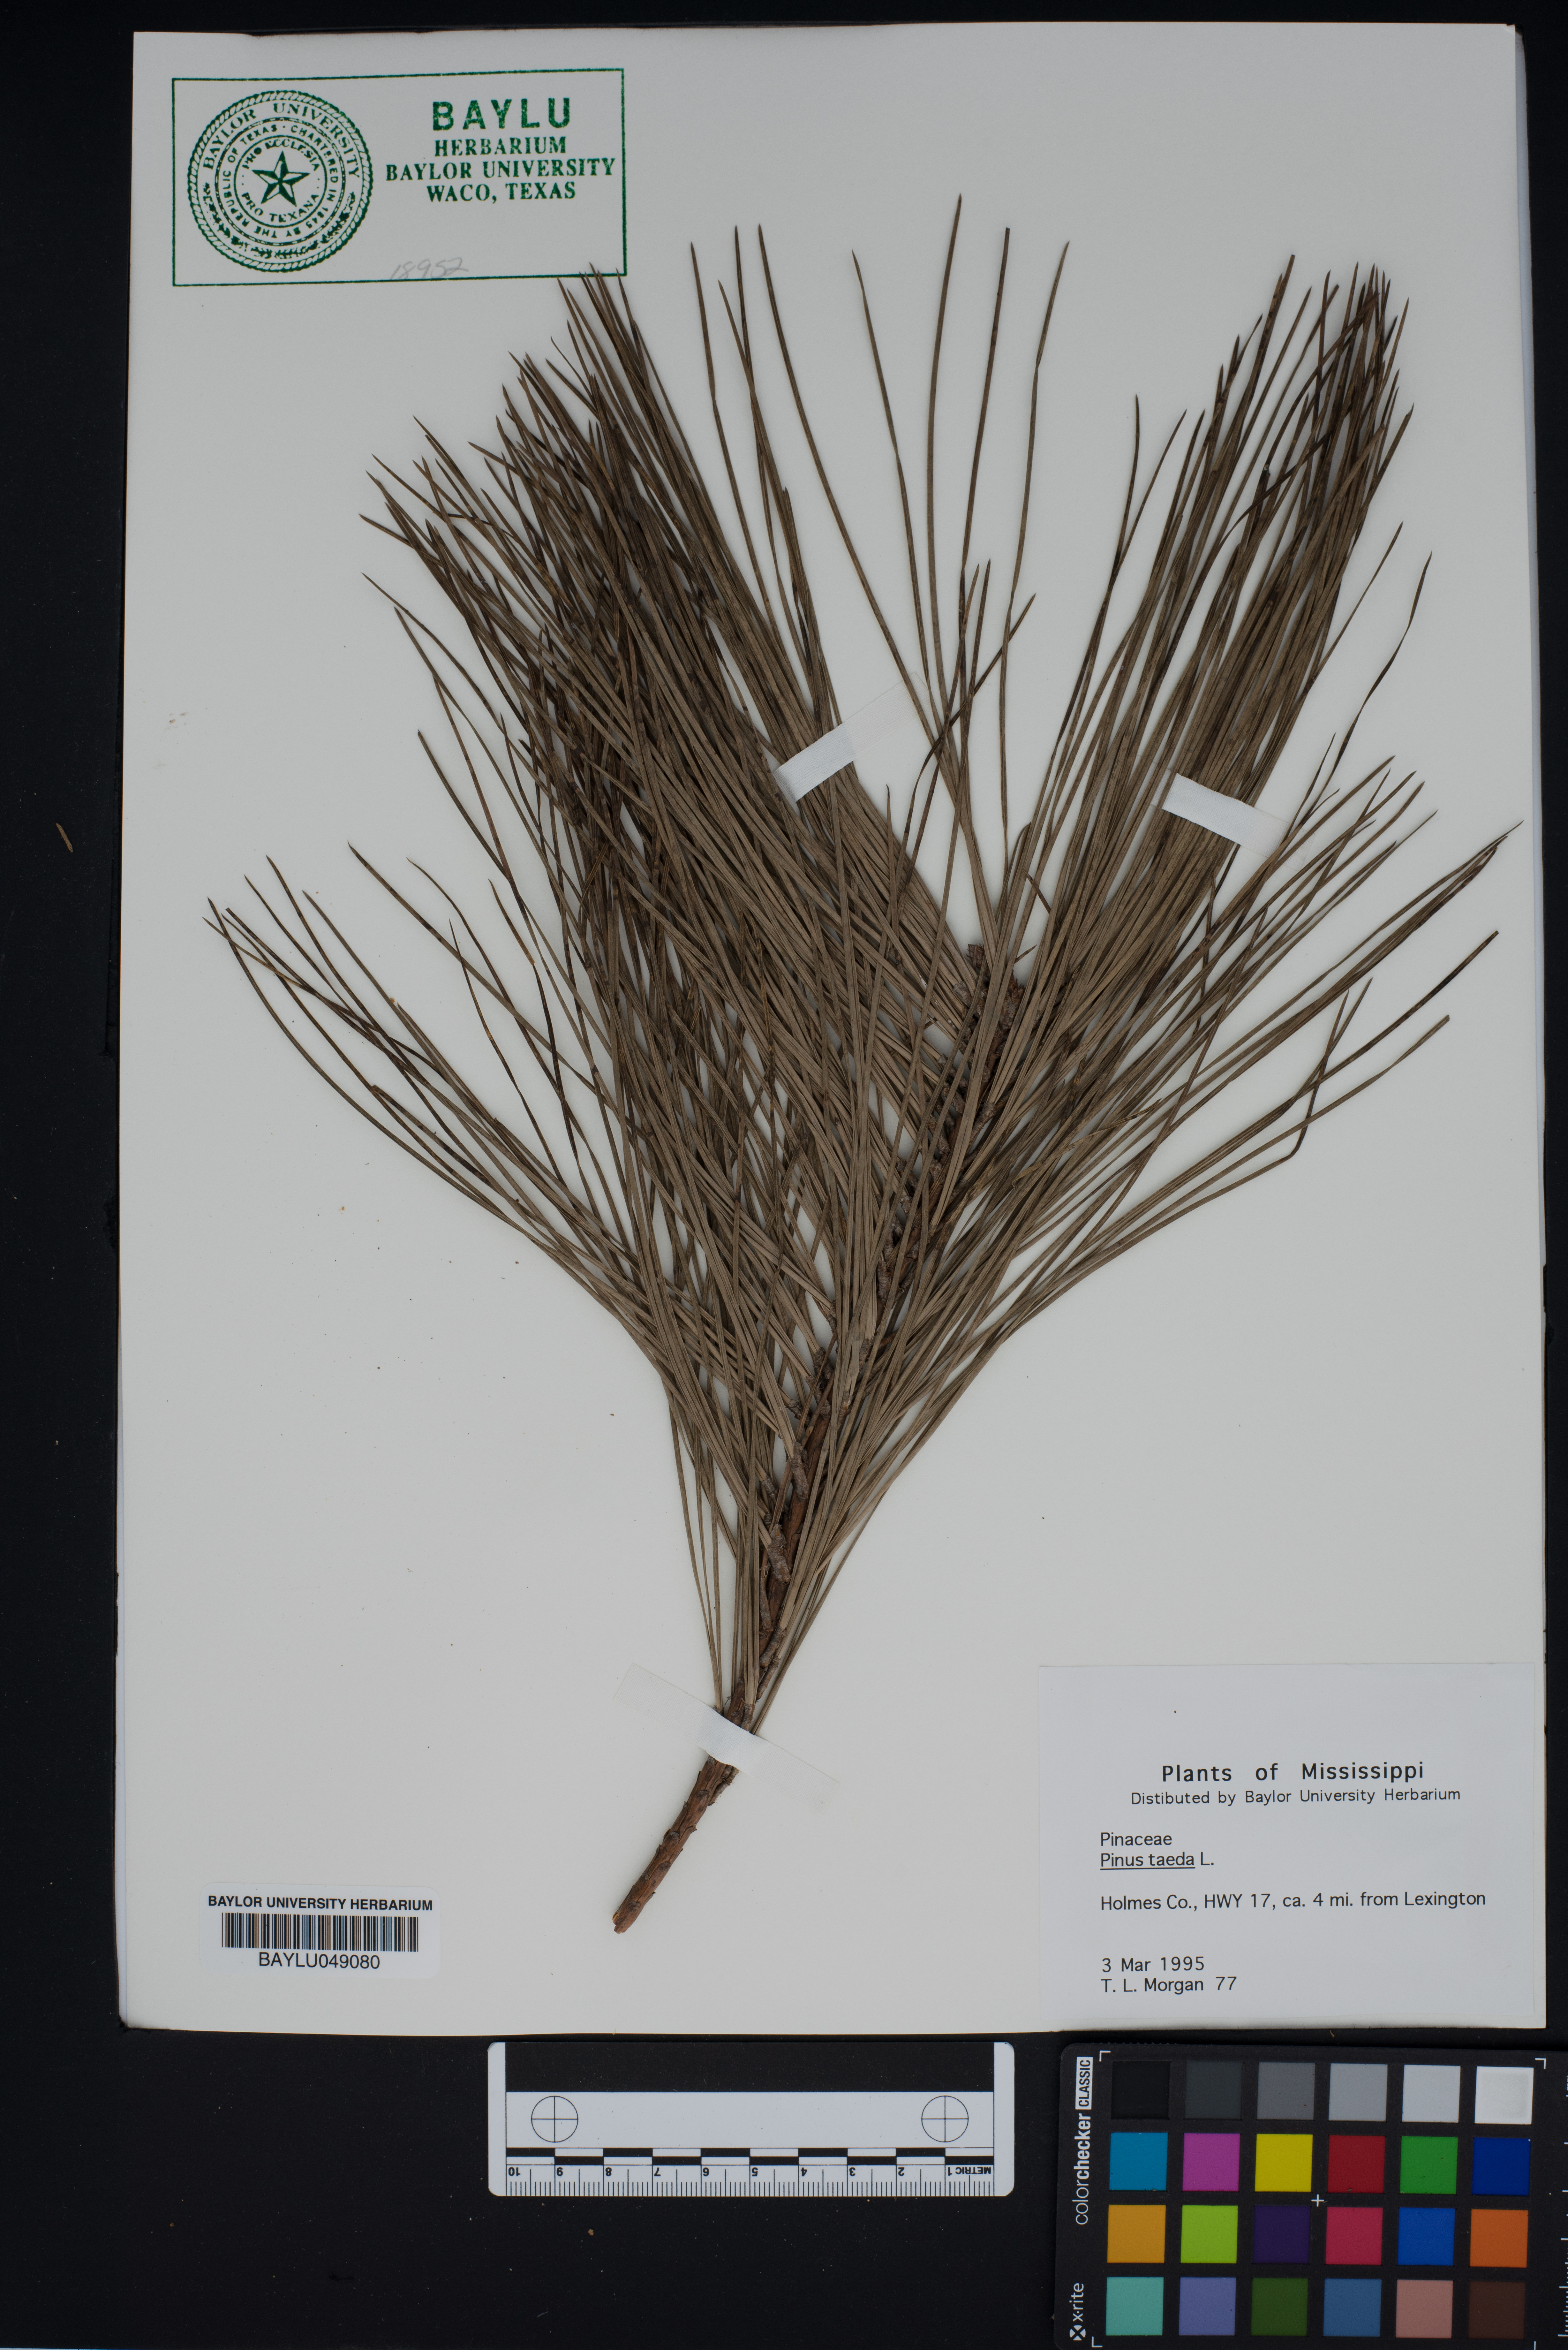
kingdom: Plantae
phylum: Tracheophyta
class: Pinopsida
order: Pinales
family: Pinaceae
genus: Pinus
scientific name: Pinus taeda
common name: Loblolly pine
